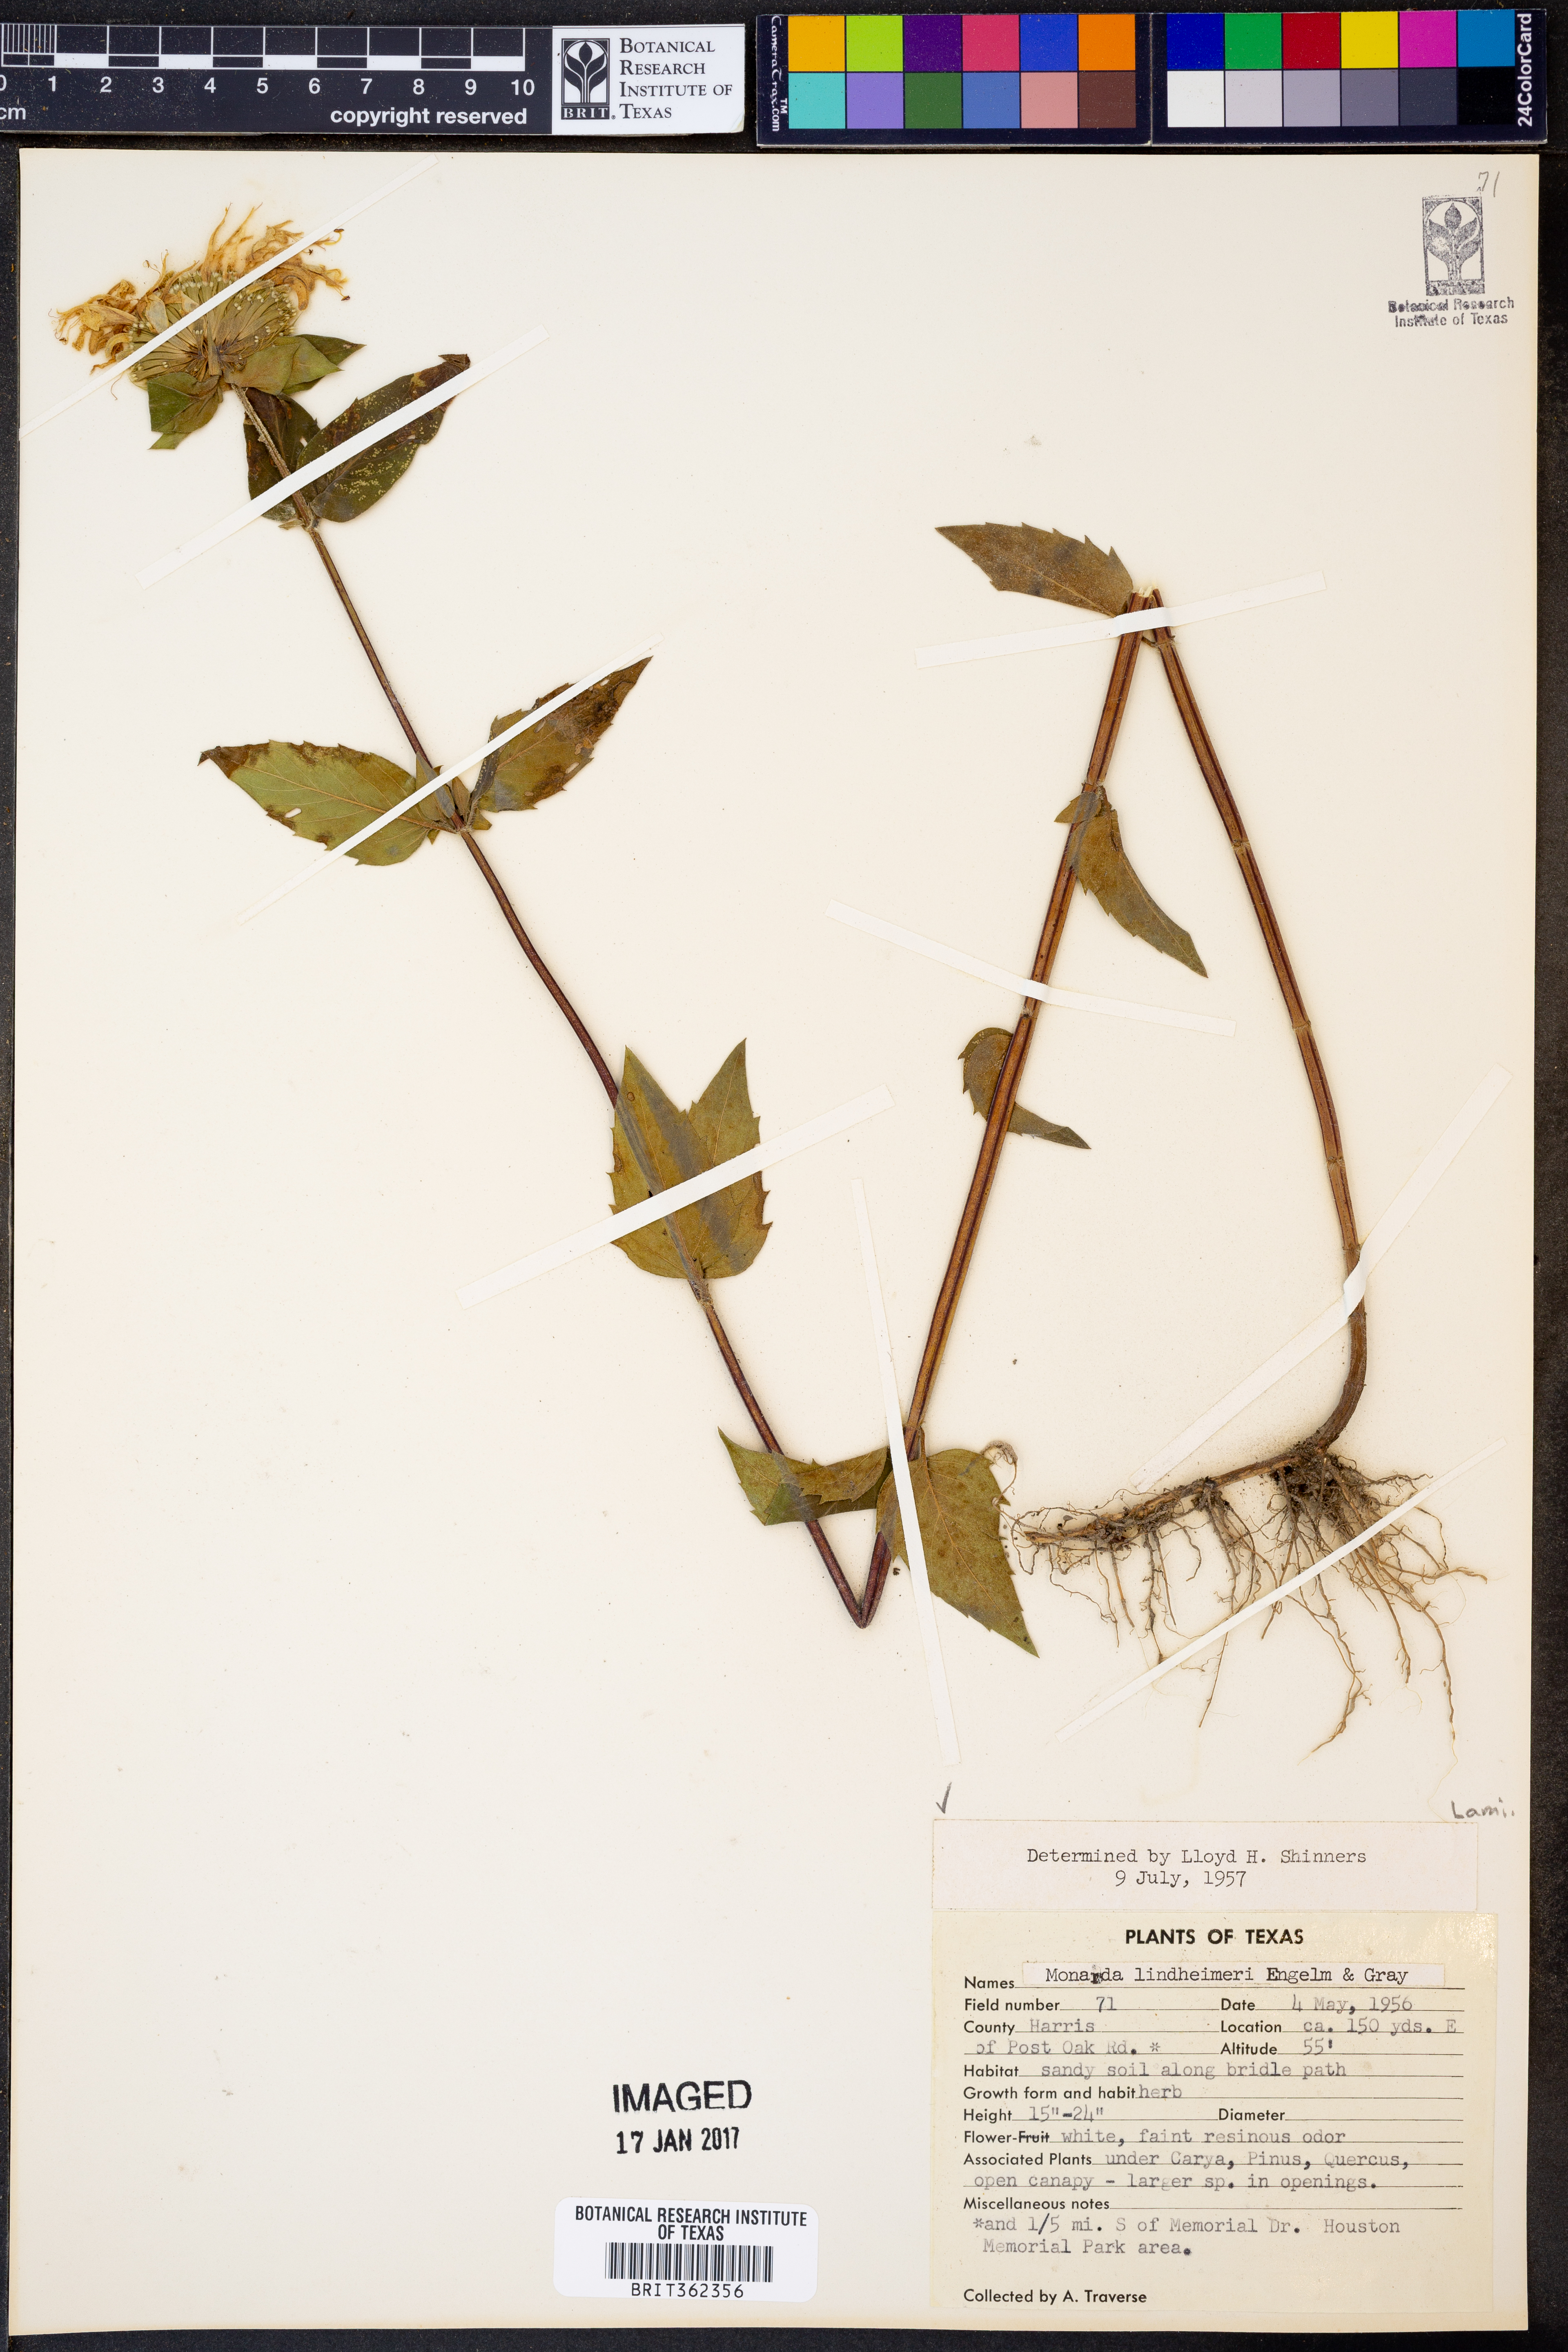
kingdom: Plantae
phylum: Tracheophyta
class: Magnoliopsida
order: Lamiales
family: Lamiaceae
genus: Monarda
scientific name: Monarda lindheimeri
